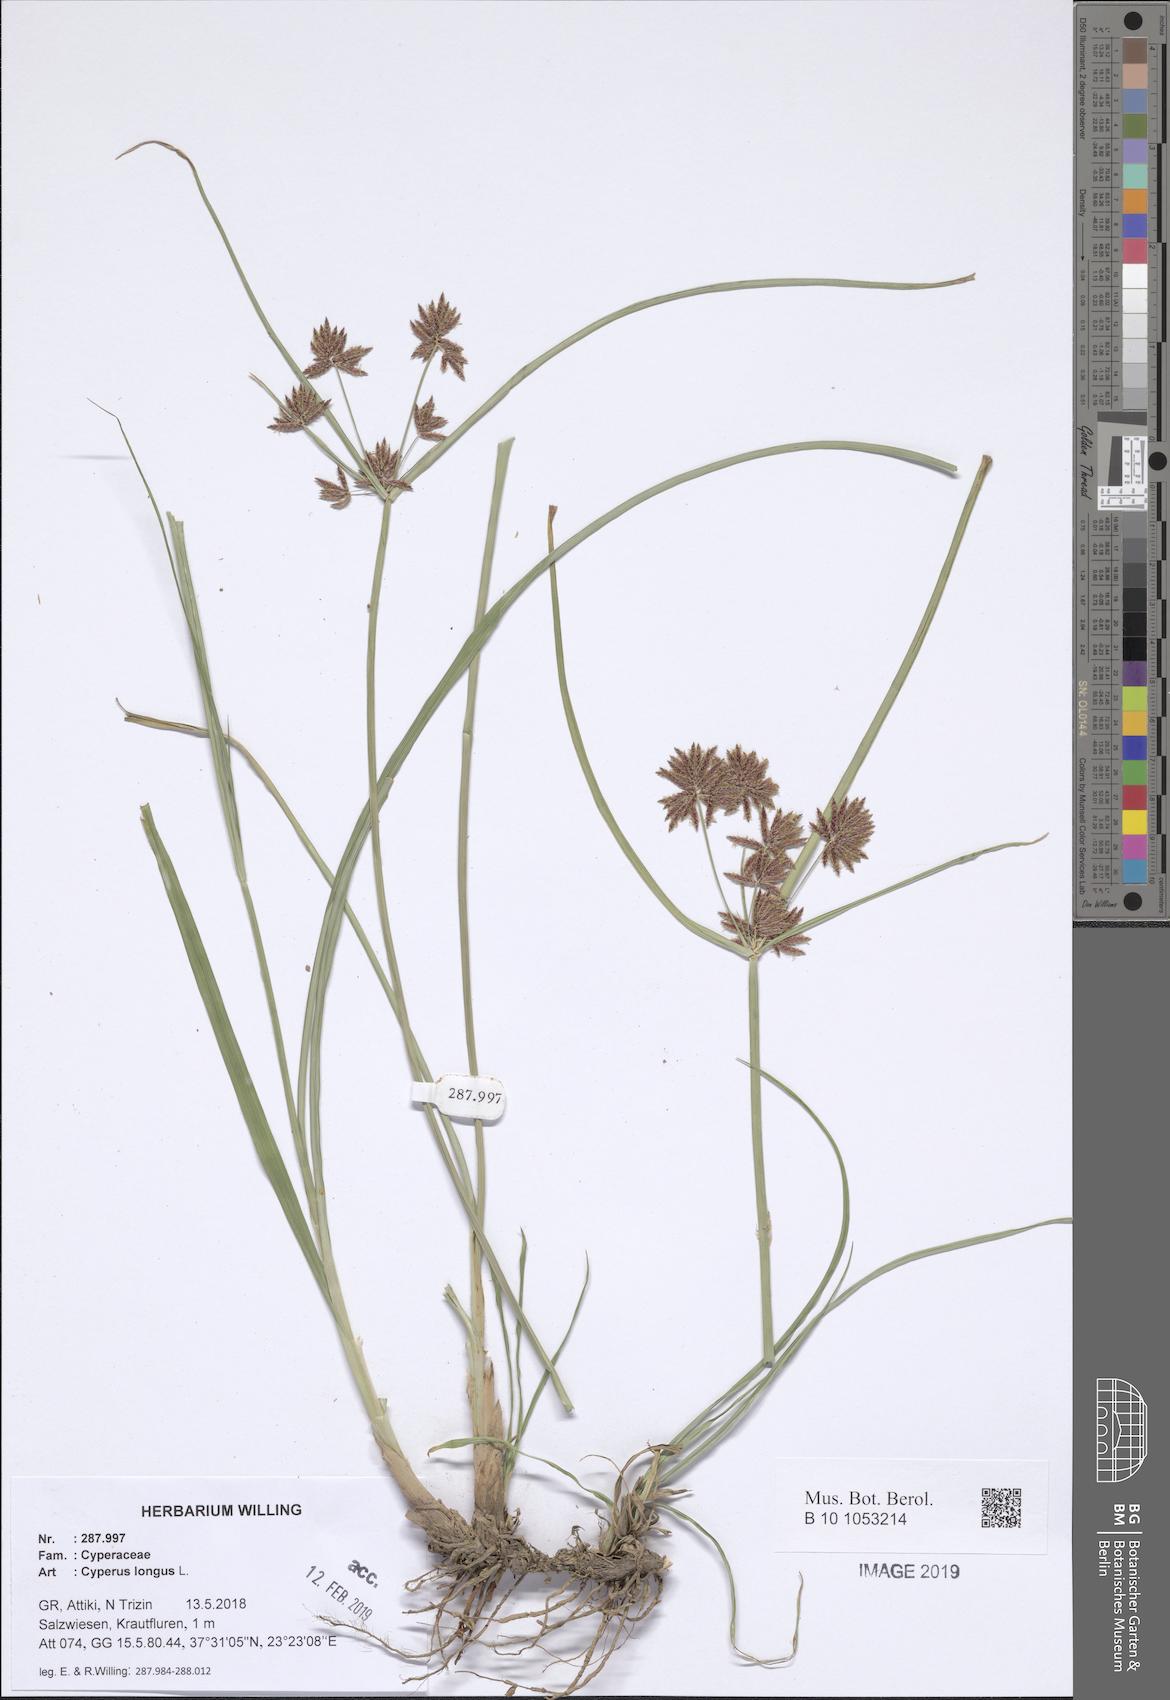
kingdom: Plantae
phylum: Tracheophyta
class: Liliopsida
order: Poales
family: Cyperaceae
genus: Cyperus
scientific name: Cyperus longus
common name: Galingale
